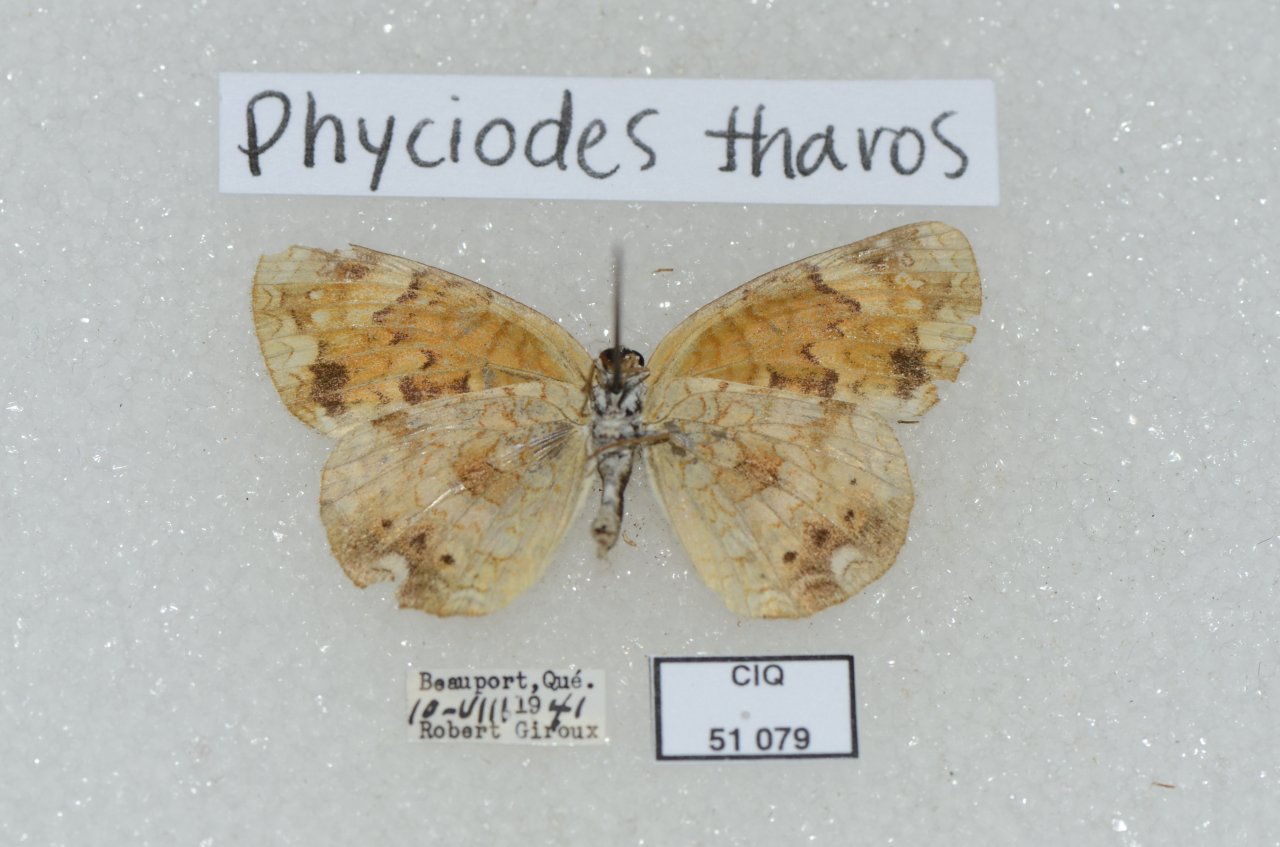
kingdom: Animalia
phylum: Arthropoda
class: Insecta
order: Lepidoptera
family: Nymphalidae
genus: Phyciodes
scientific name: Phyciodes tharos
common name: Northern Crescent
